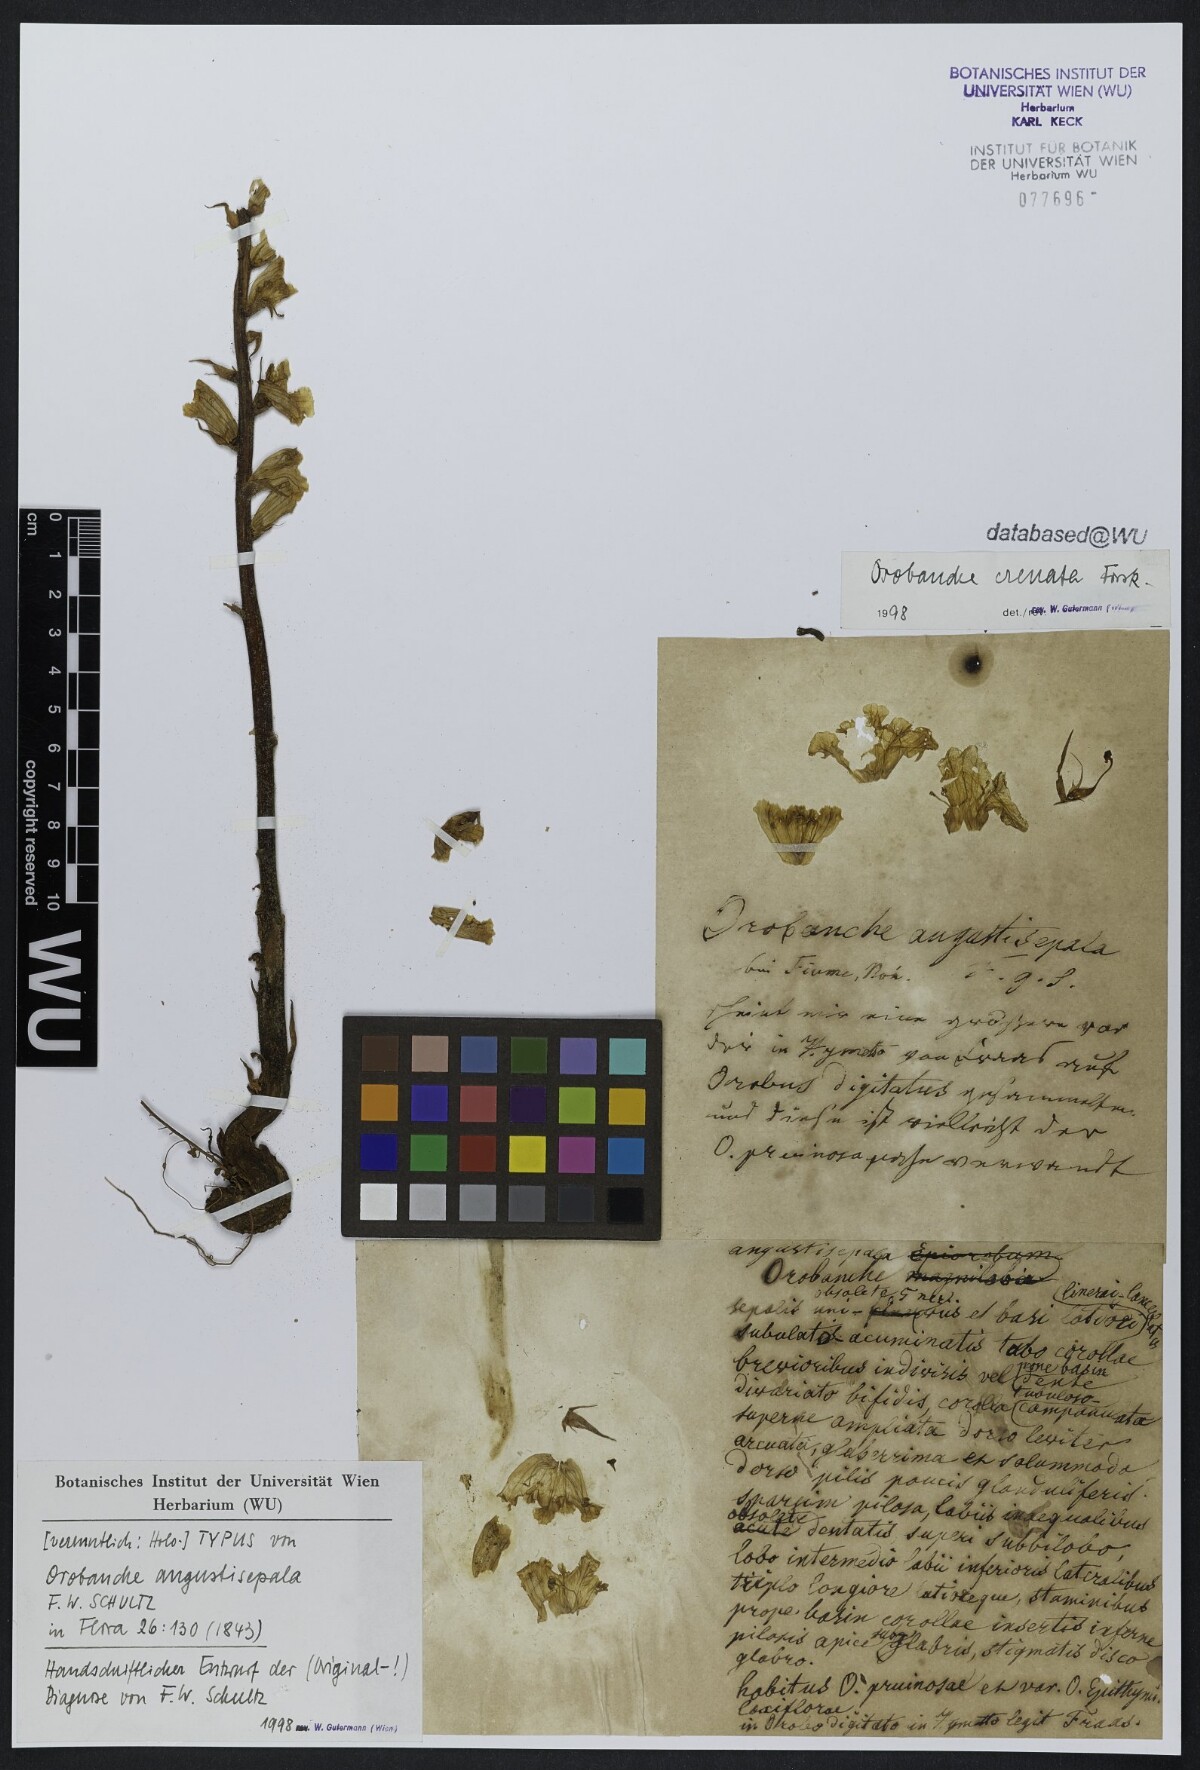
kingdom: Plantae
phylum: Tracheophyta
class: Magnoliopsida
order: Lamiales
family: Orobanchaceae
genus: Orobanche
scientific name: Orobanche crenata
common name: Bean broomrape
